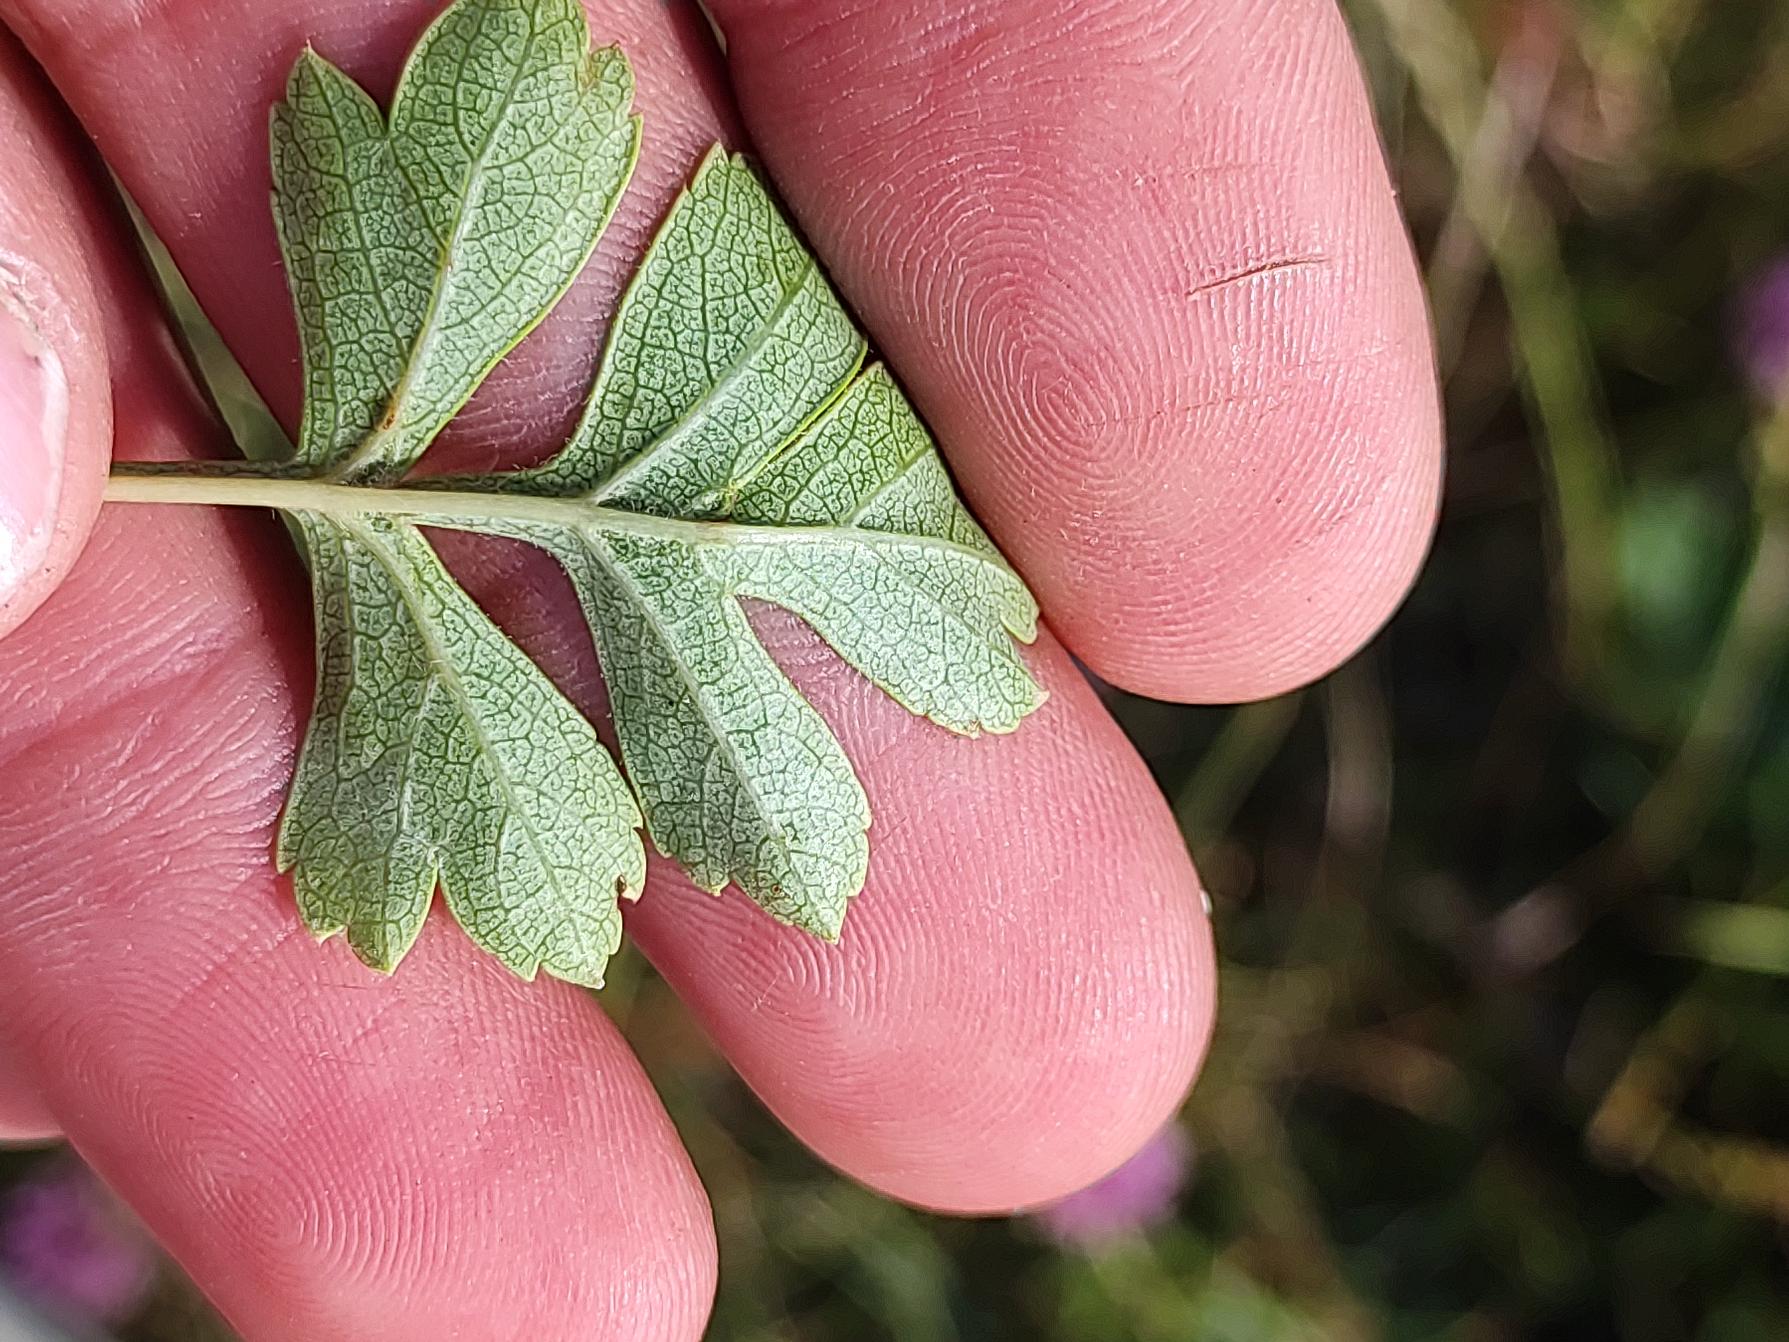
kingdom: Plantae
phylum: Tracheophyta
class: Magnoliopsida
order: Rosales
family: Rosaceae
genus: Crataegus
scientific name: Crataegus monogyna
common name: Engriflet hvidtjørn
